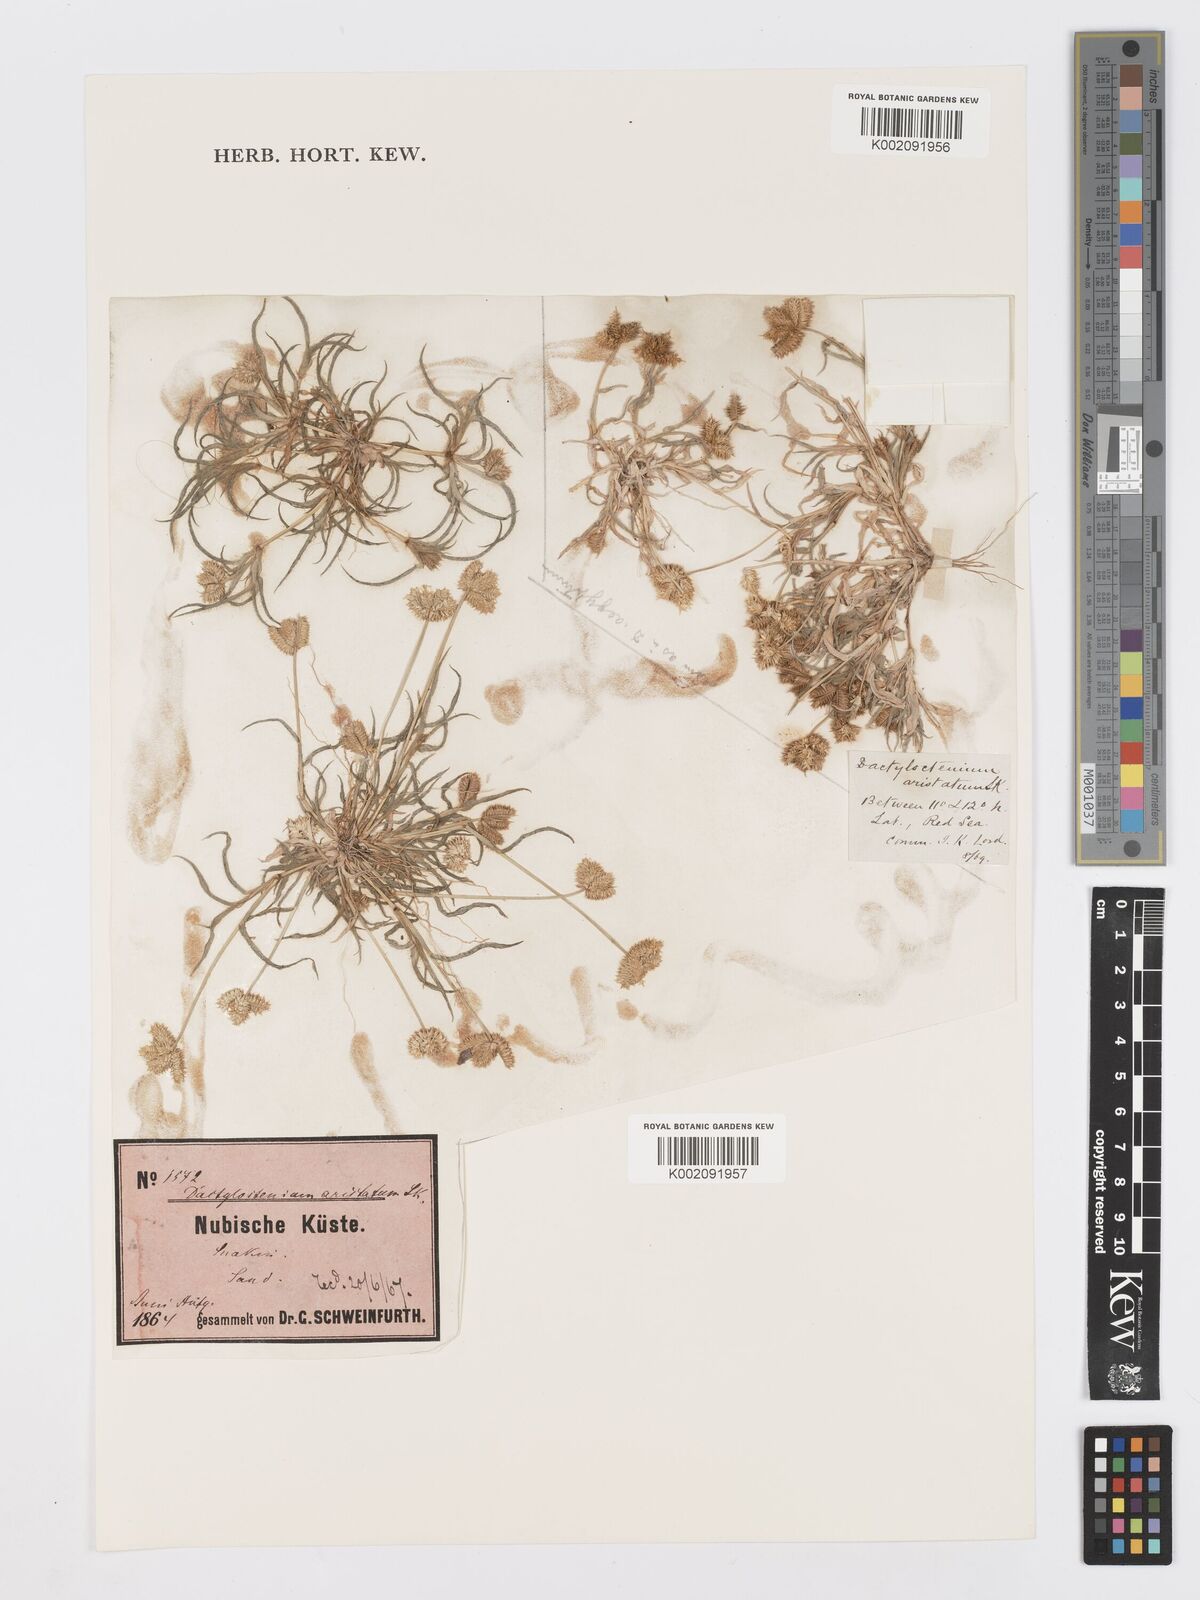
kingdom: Plantae
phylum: Tracheophyta
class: Liliopsida
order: Poales
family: Poaceae
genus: Dactyloctenium
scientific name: Dactyloctenium aristatum
